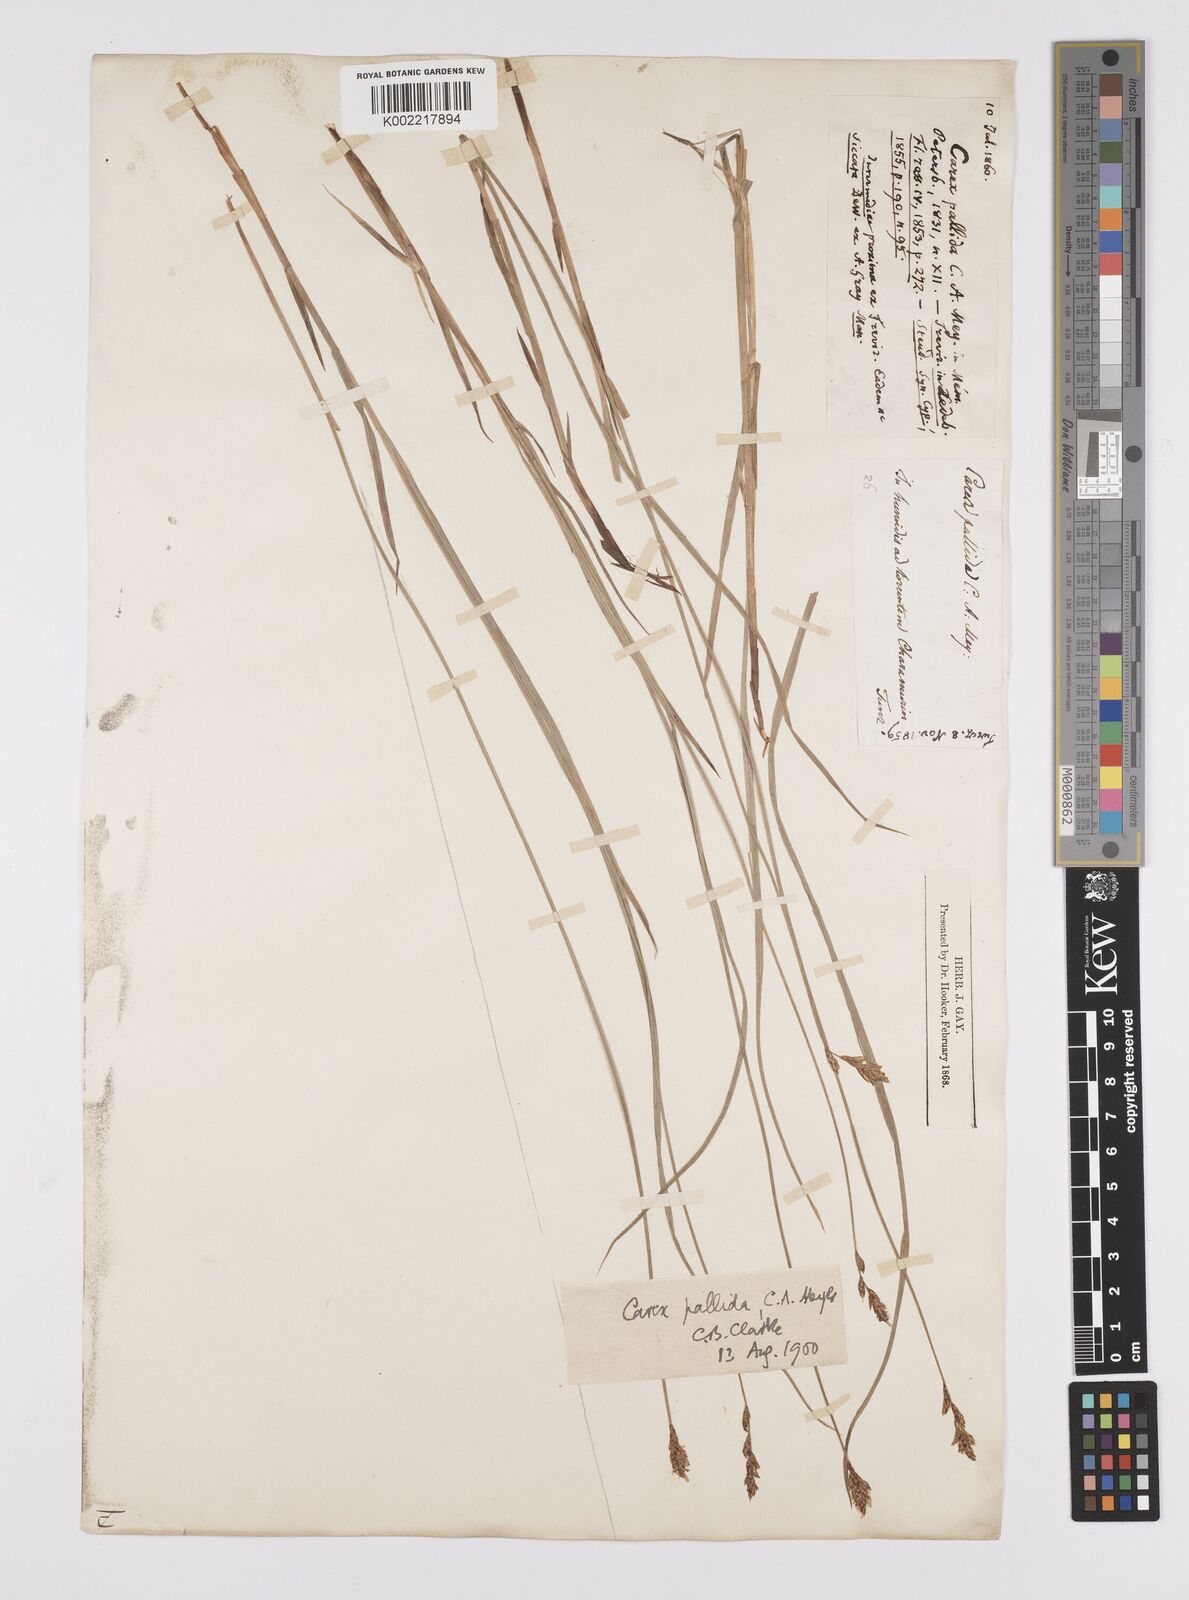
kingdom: Plantae
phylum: Tracheophyta
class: Liliopsida
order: Poales
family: Cyperaceae
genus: Carex
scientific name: Carex accrescens
